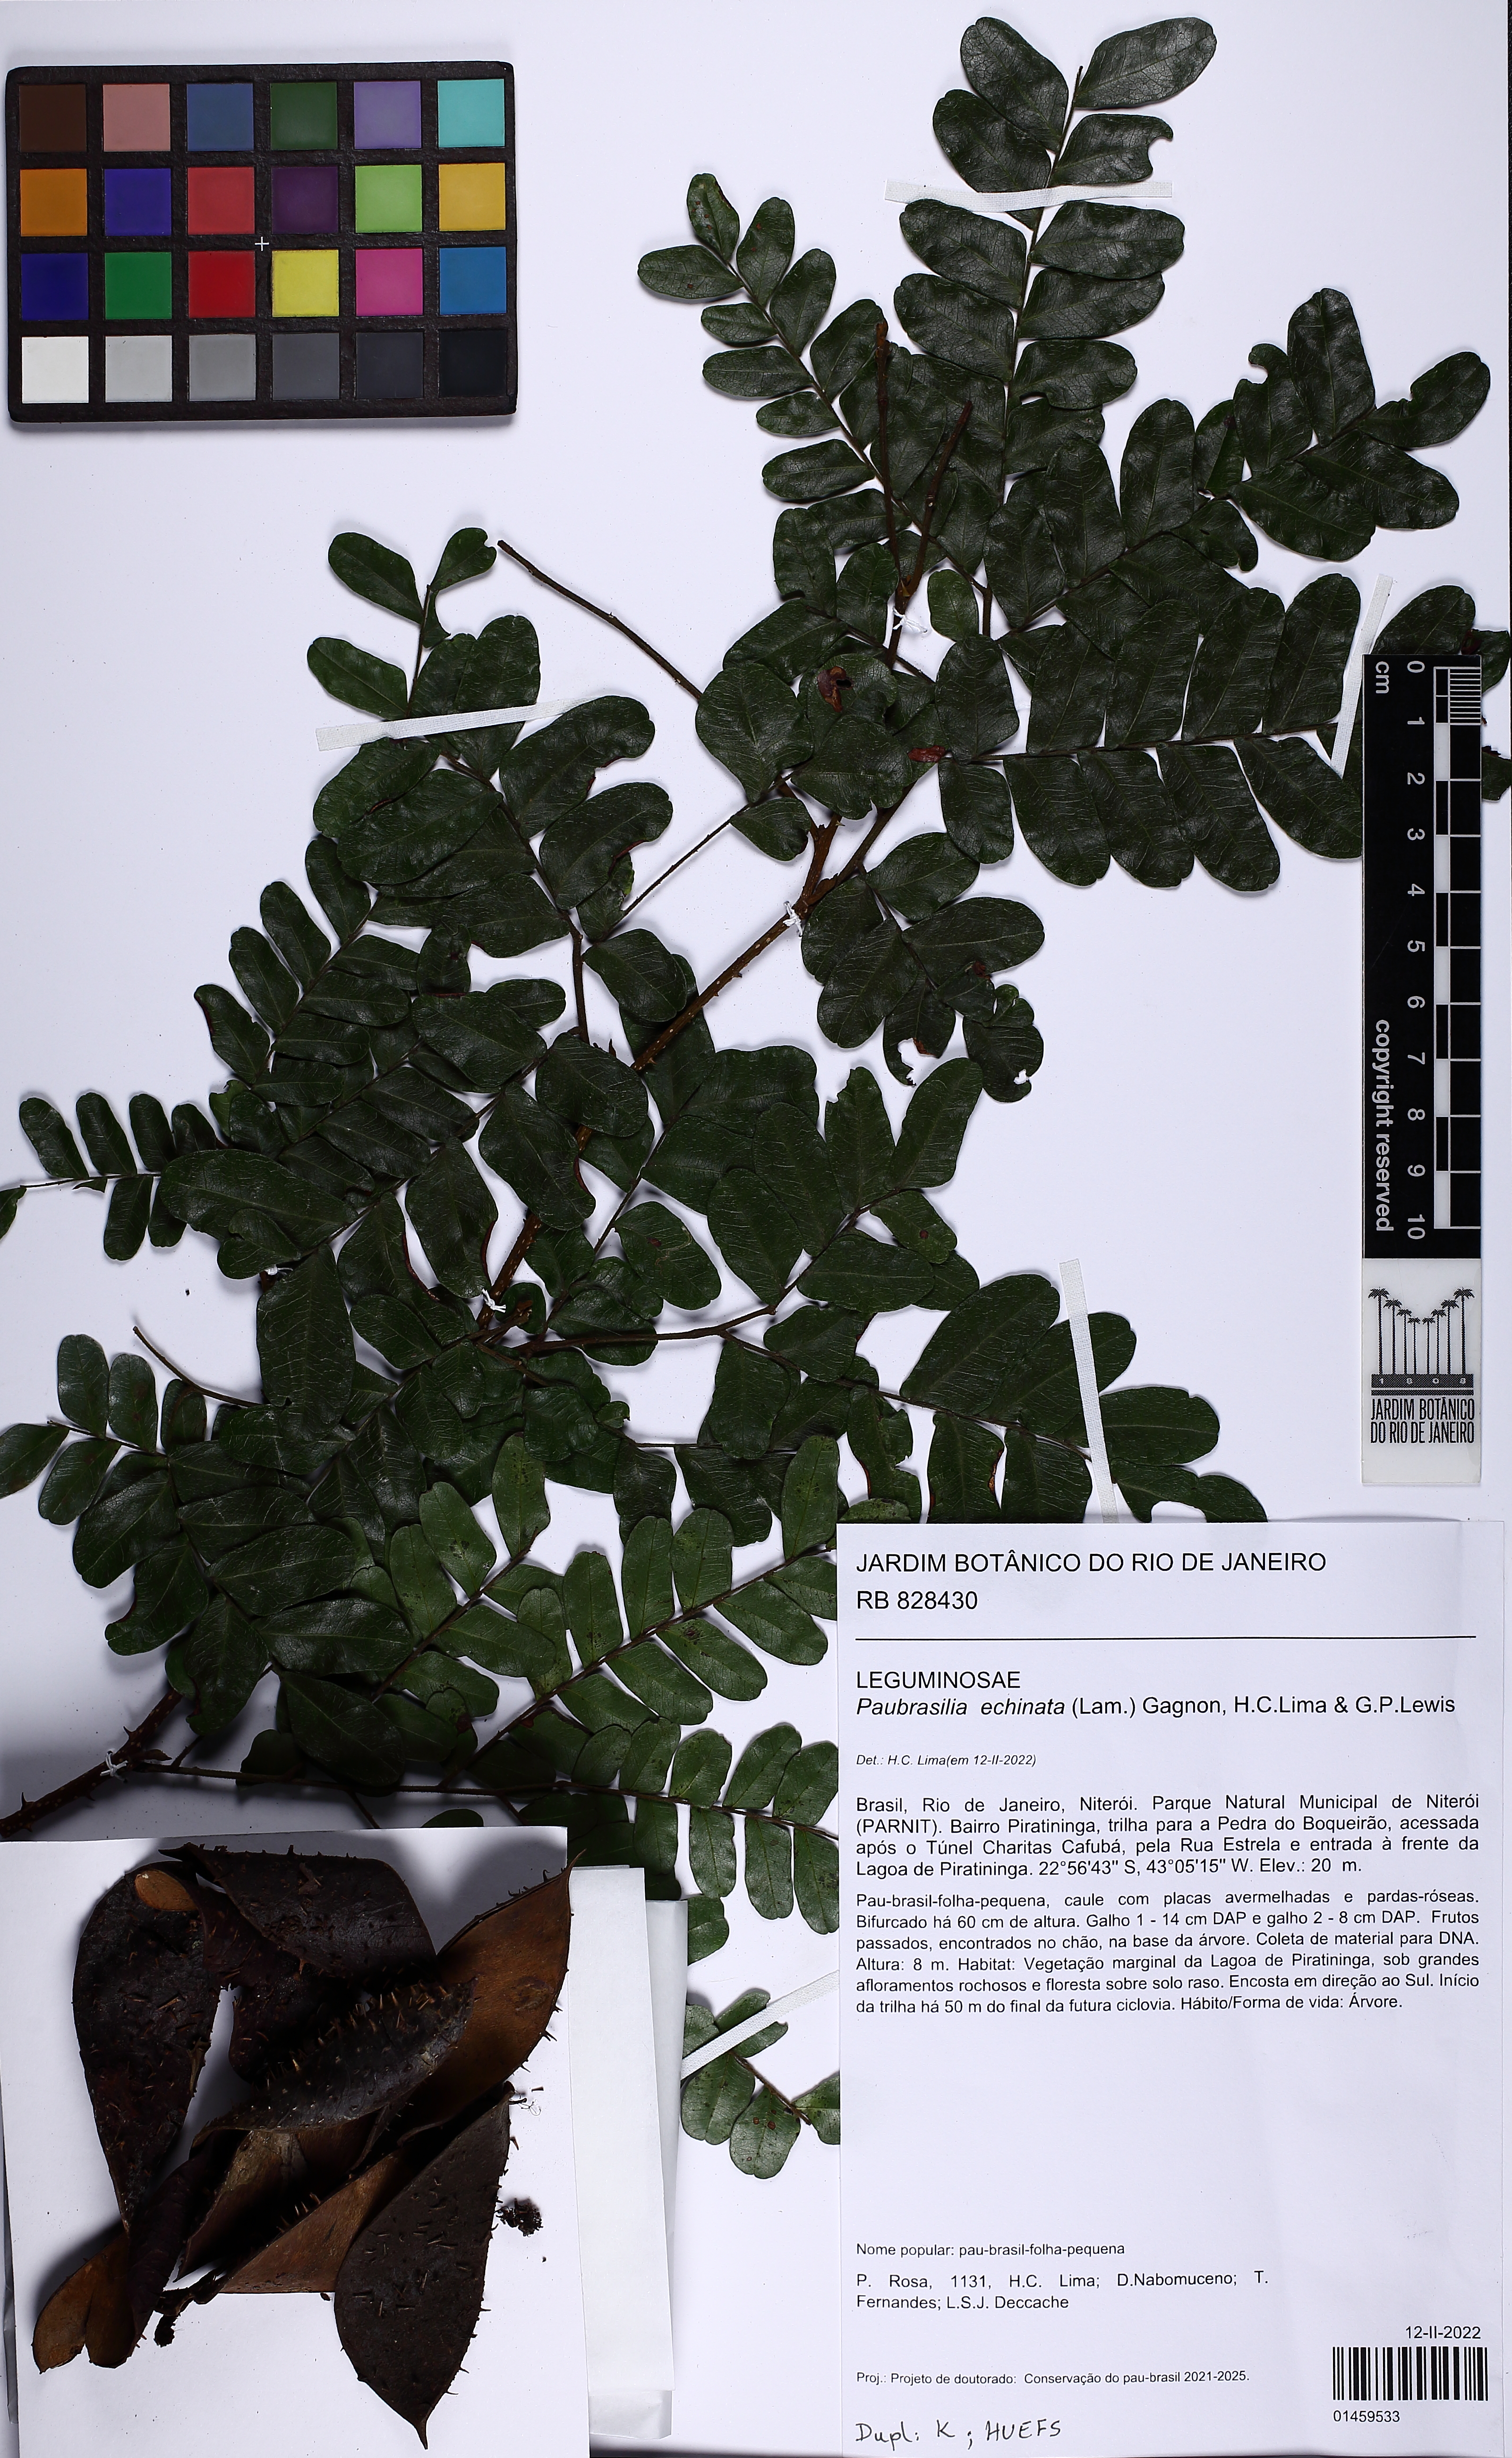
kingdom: Plantae
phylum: Tracheophyta
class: Magnoliopsida
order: Fabales
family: Fabaceae
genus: Paubrasilia
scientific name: Paubrasilia echinata
